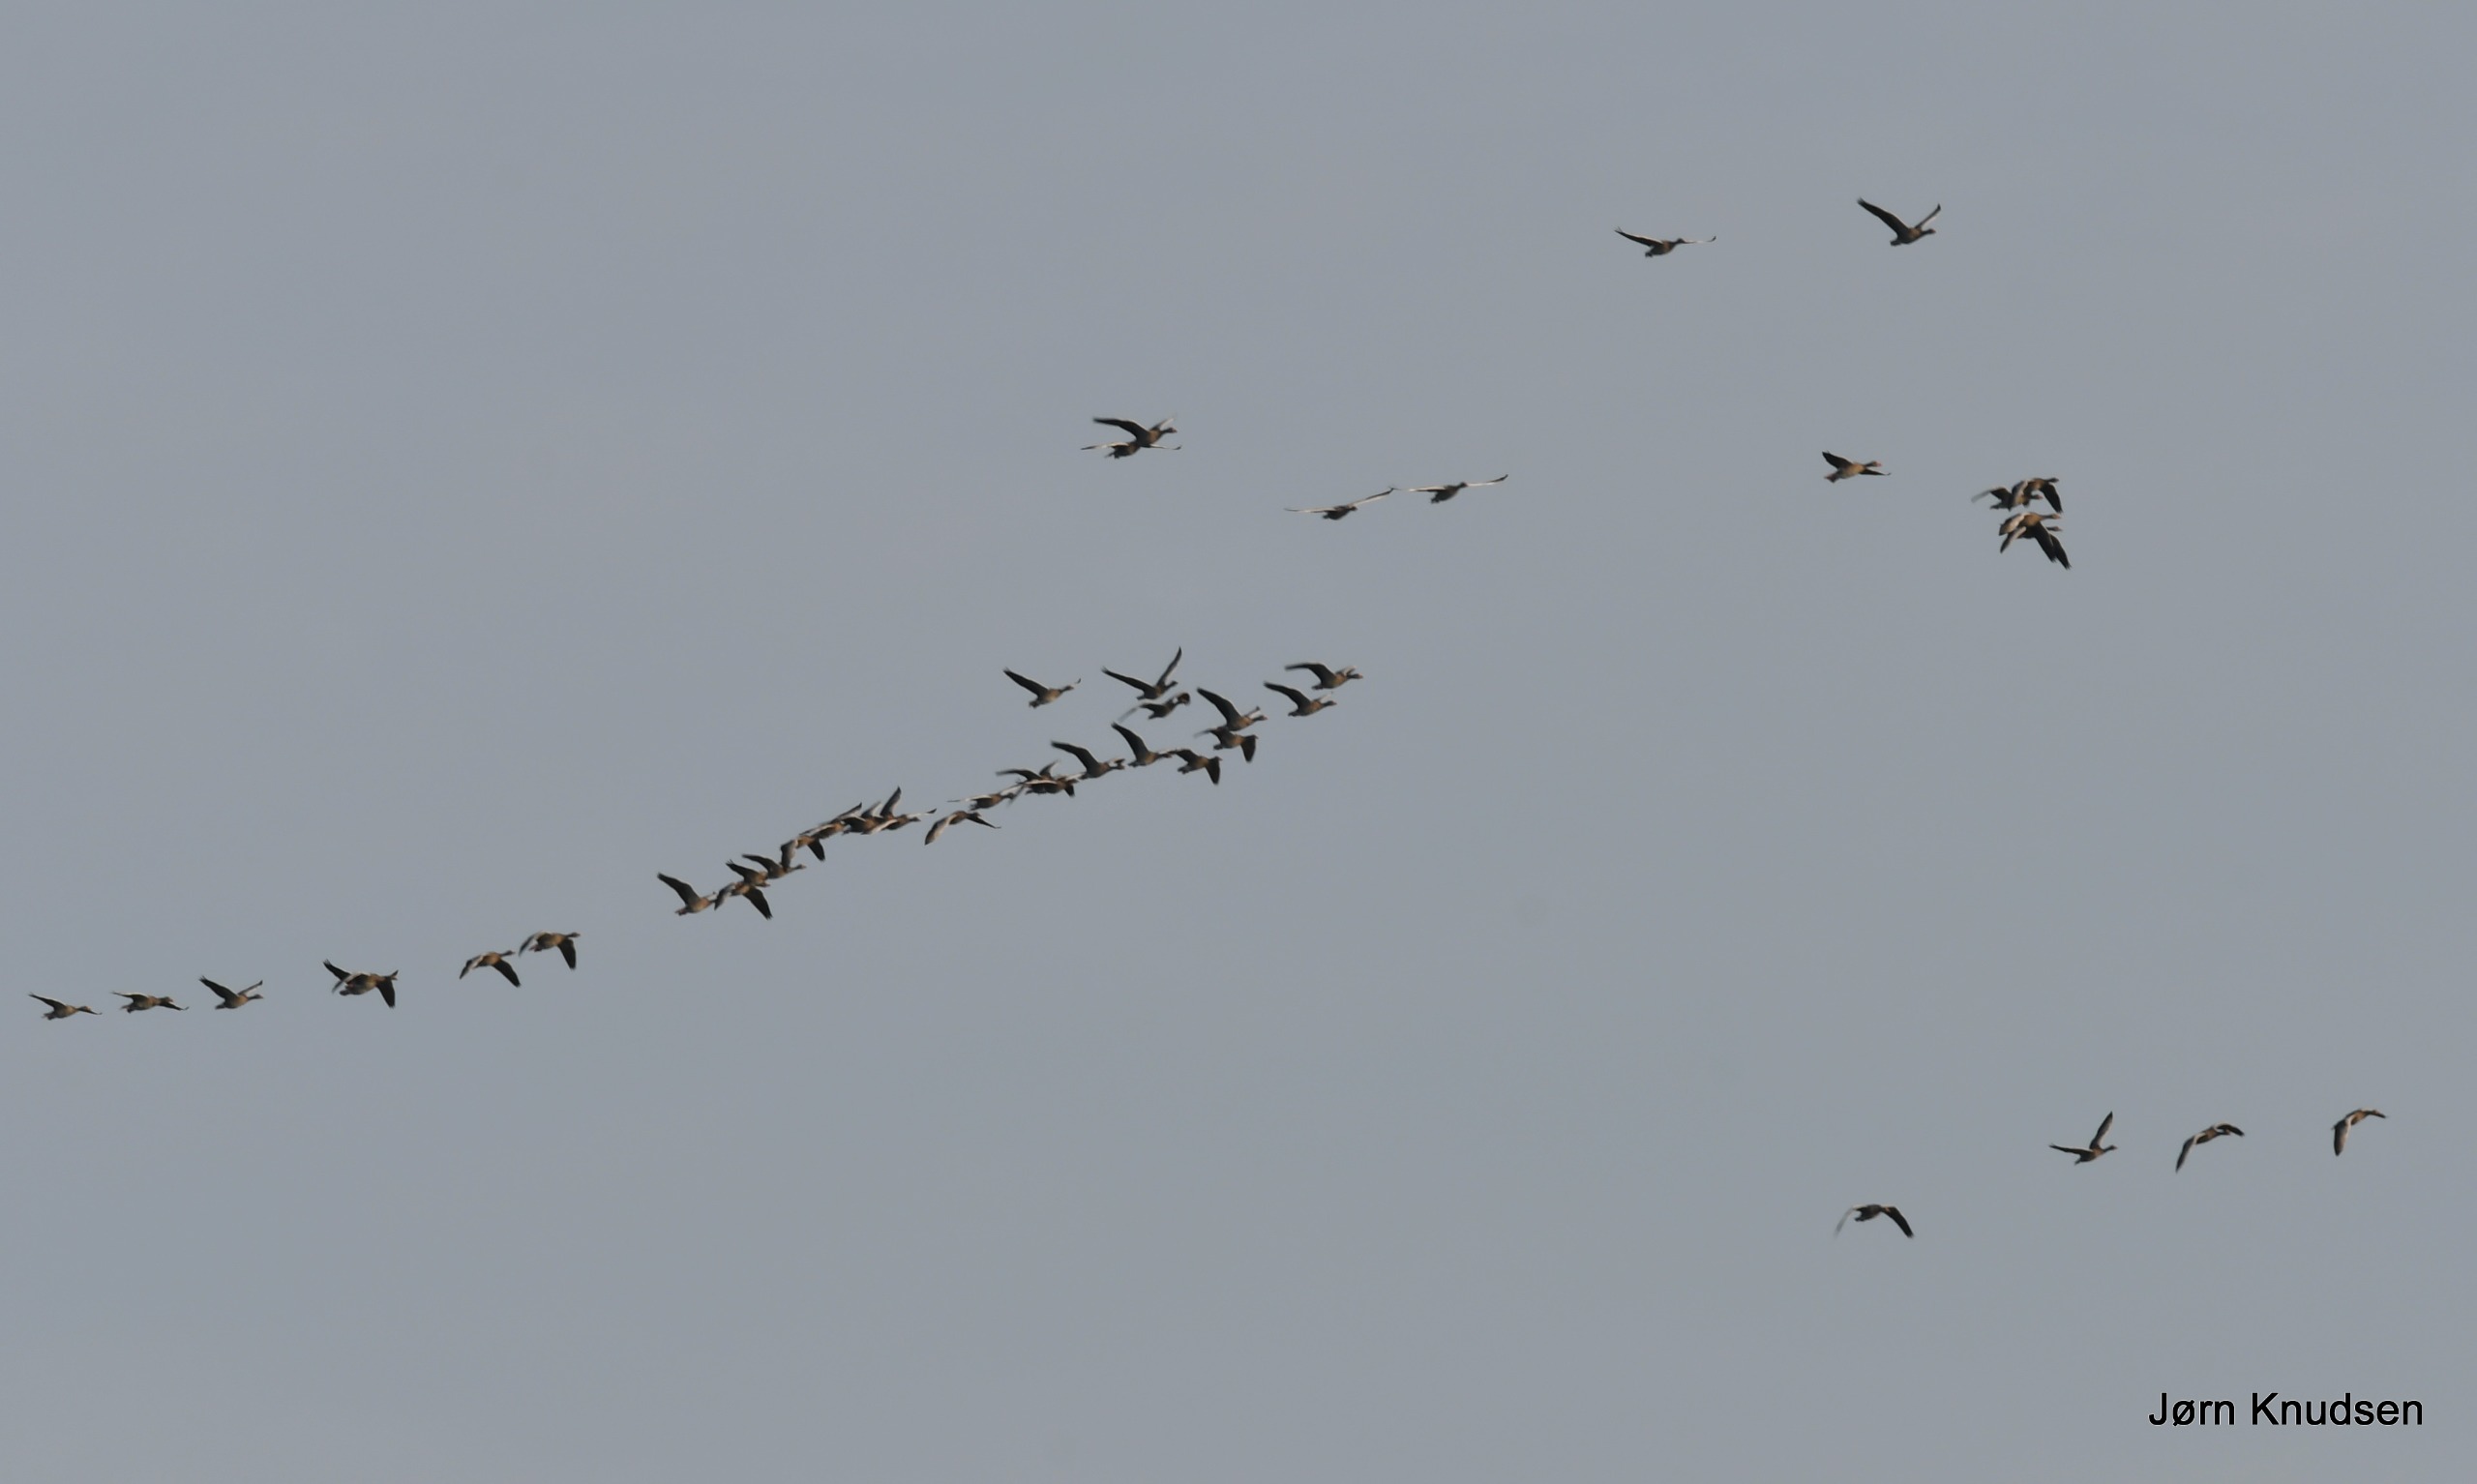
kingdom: Animalia
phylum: Chordata
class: Aves
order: Anseriformes
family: Anatidae
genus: Anser
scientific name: Anser anser
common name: Grågås
